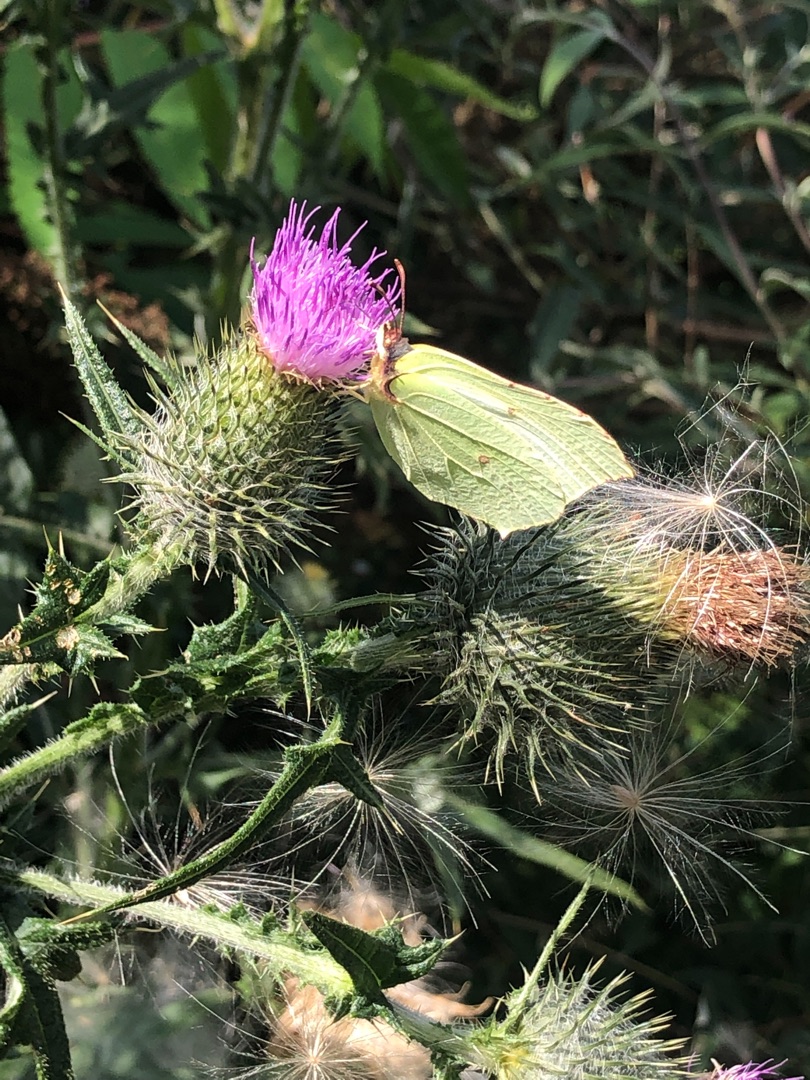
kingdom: Animalia
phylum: Arthropoda
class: Insecta
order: Lepidoptera
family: Pieridae
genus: Gonepteryx
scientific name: Gonepteryx rhamni
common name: Citronsommerfugl
